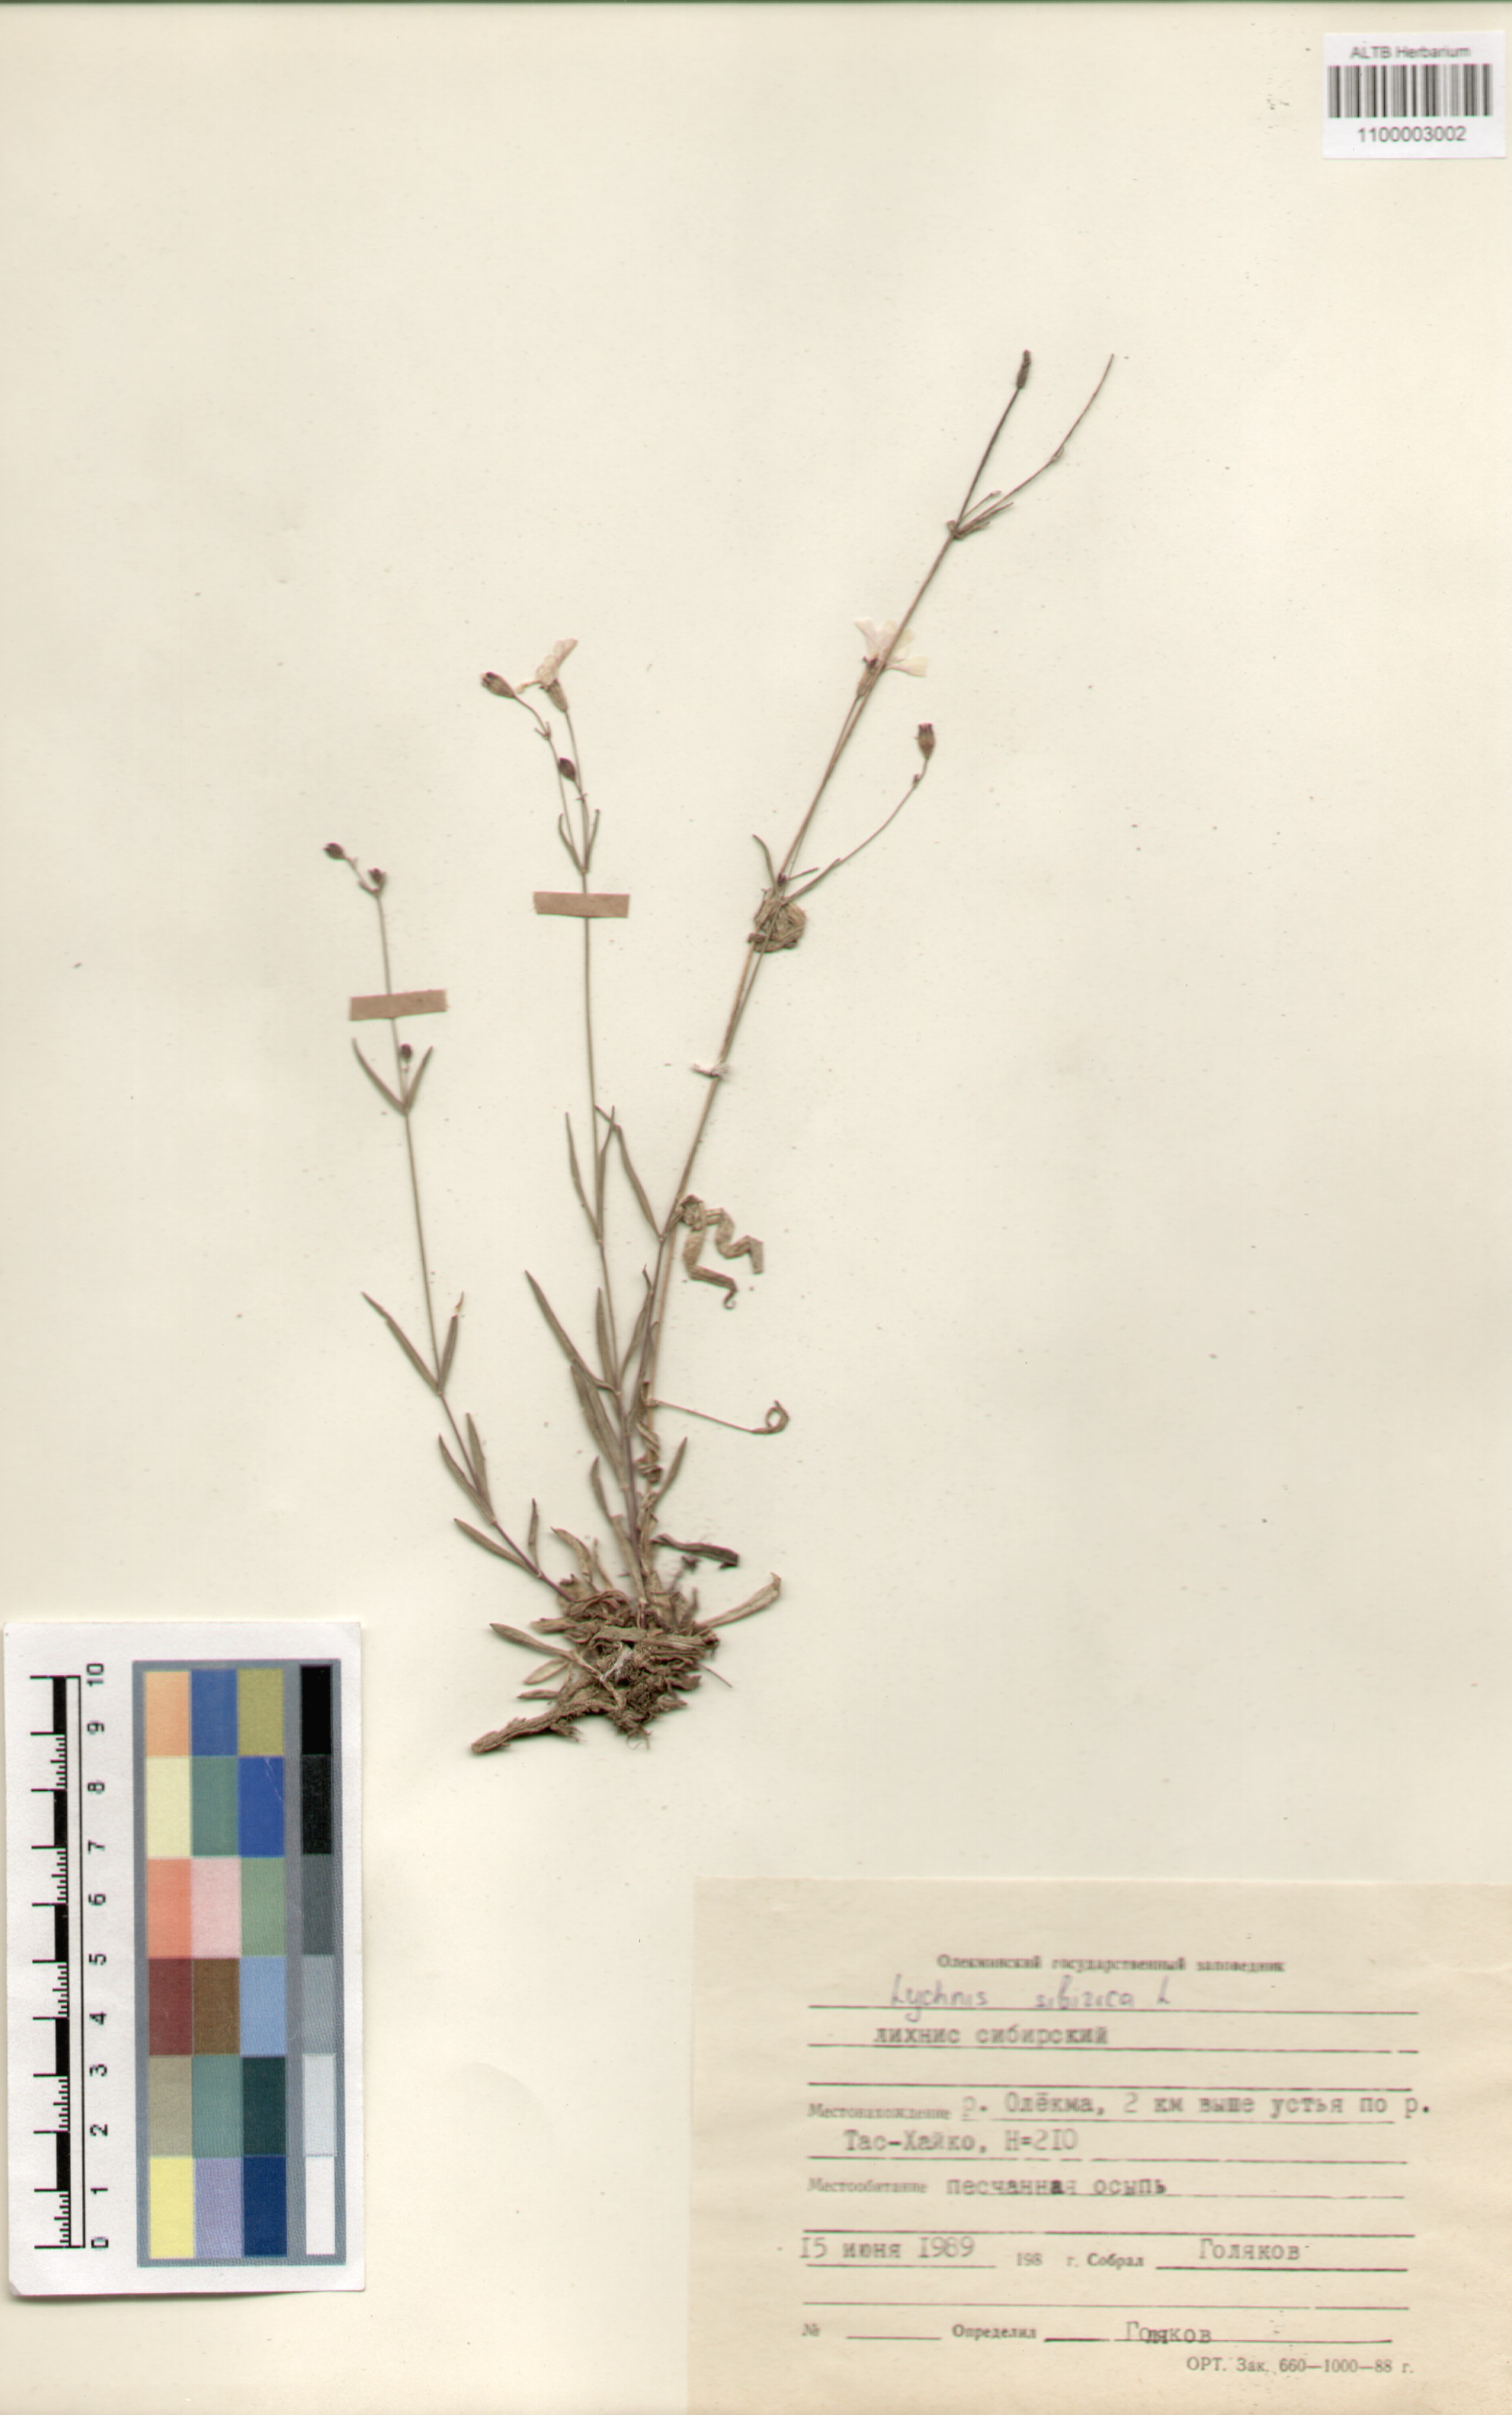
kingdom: Plantae
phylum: Tracheophyta
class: Magnoliopsida
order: Caryophyllales
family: Caryophyllaceae
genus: Silene
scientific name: Silene orientalimongolica
